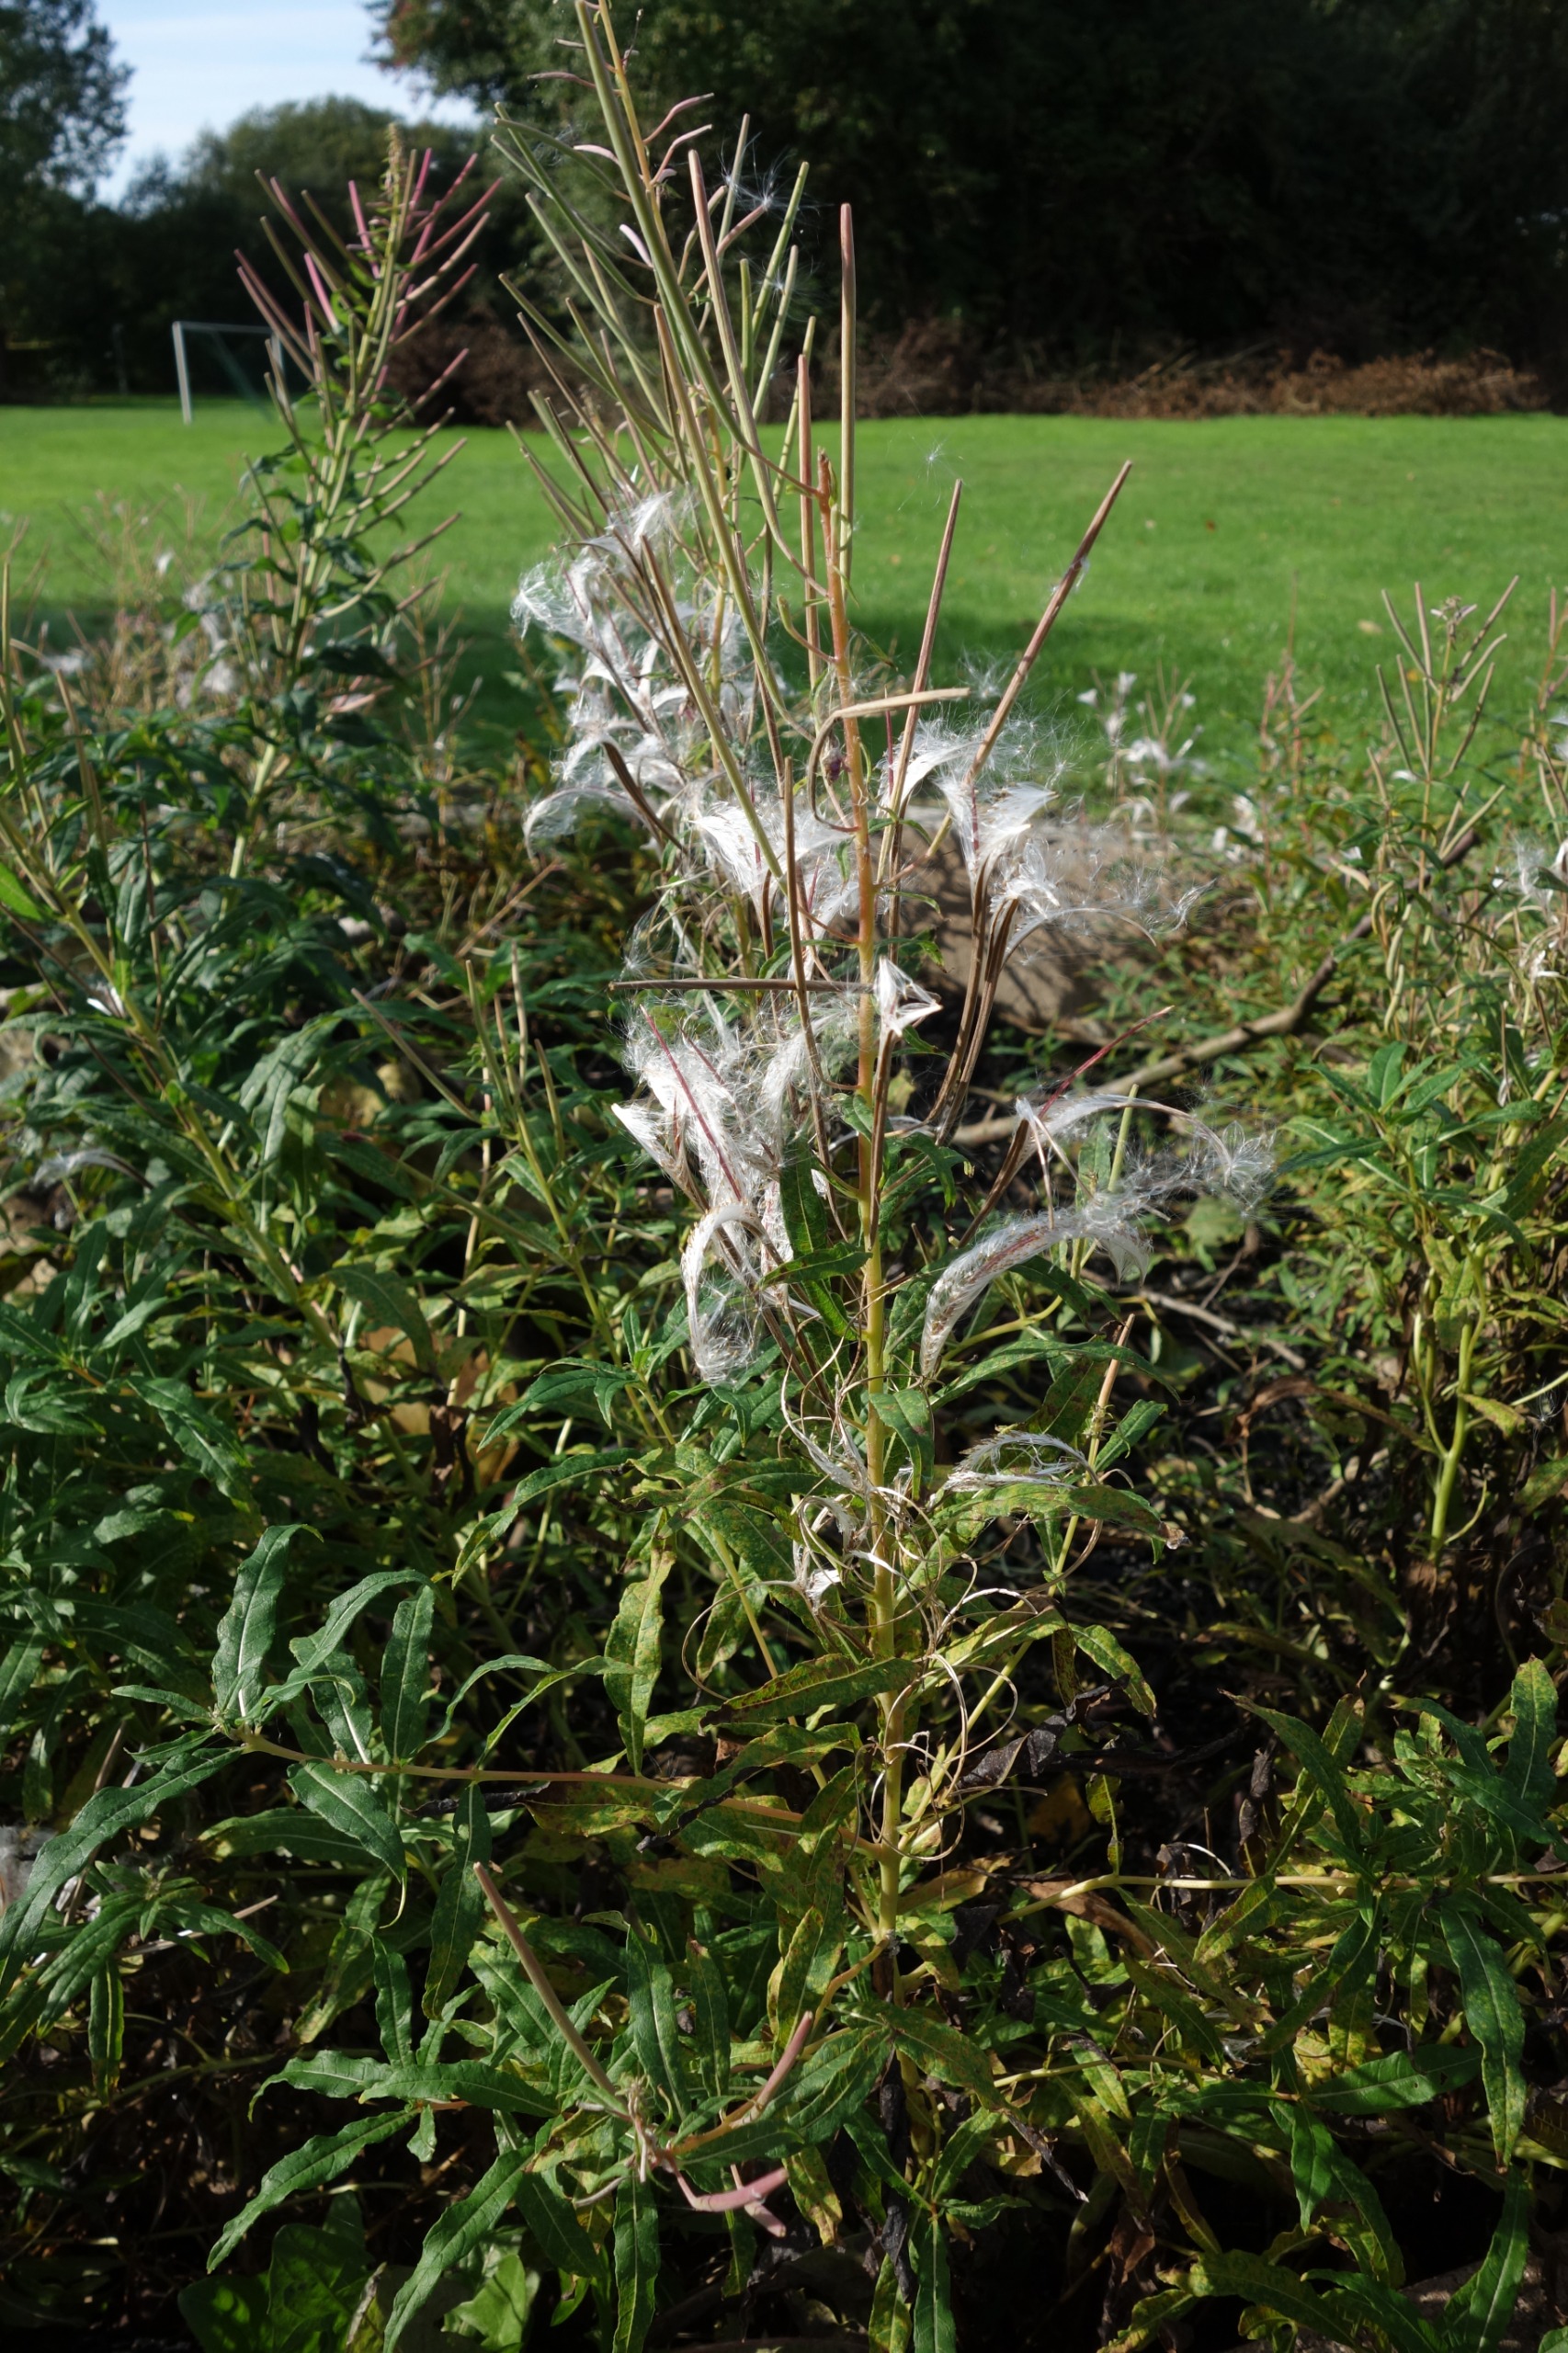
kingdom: Plantae
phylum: Tracheophyta
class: Magnoliopsida
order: Myrtales
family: Onagraceae
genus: Chamaenerion
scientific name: Chamaenerion angustifolium
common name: Gederams
